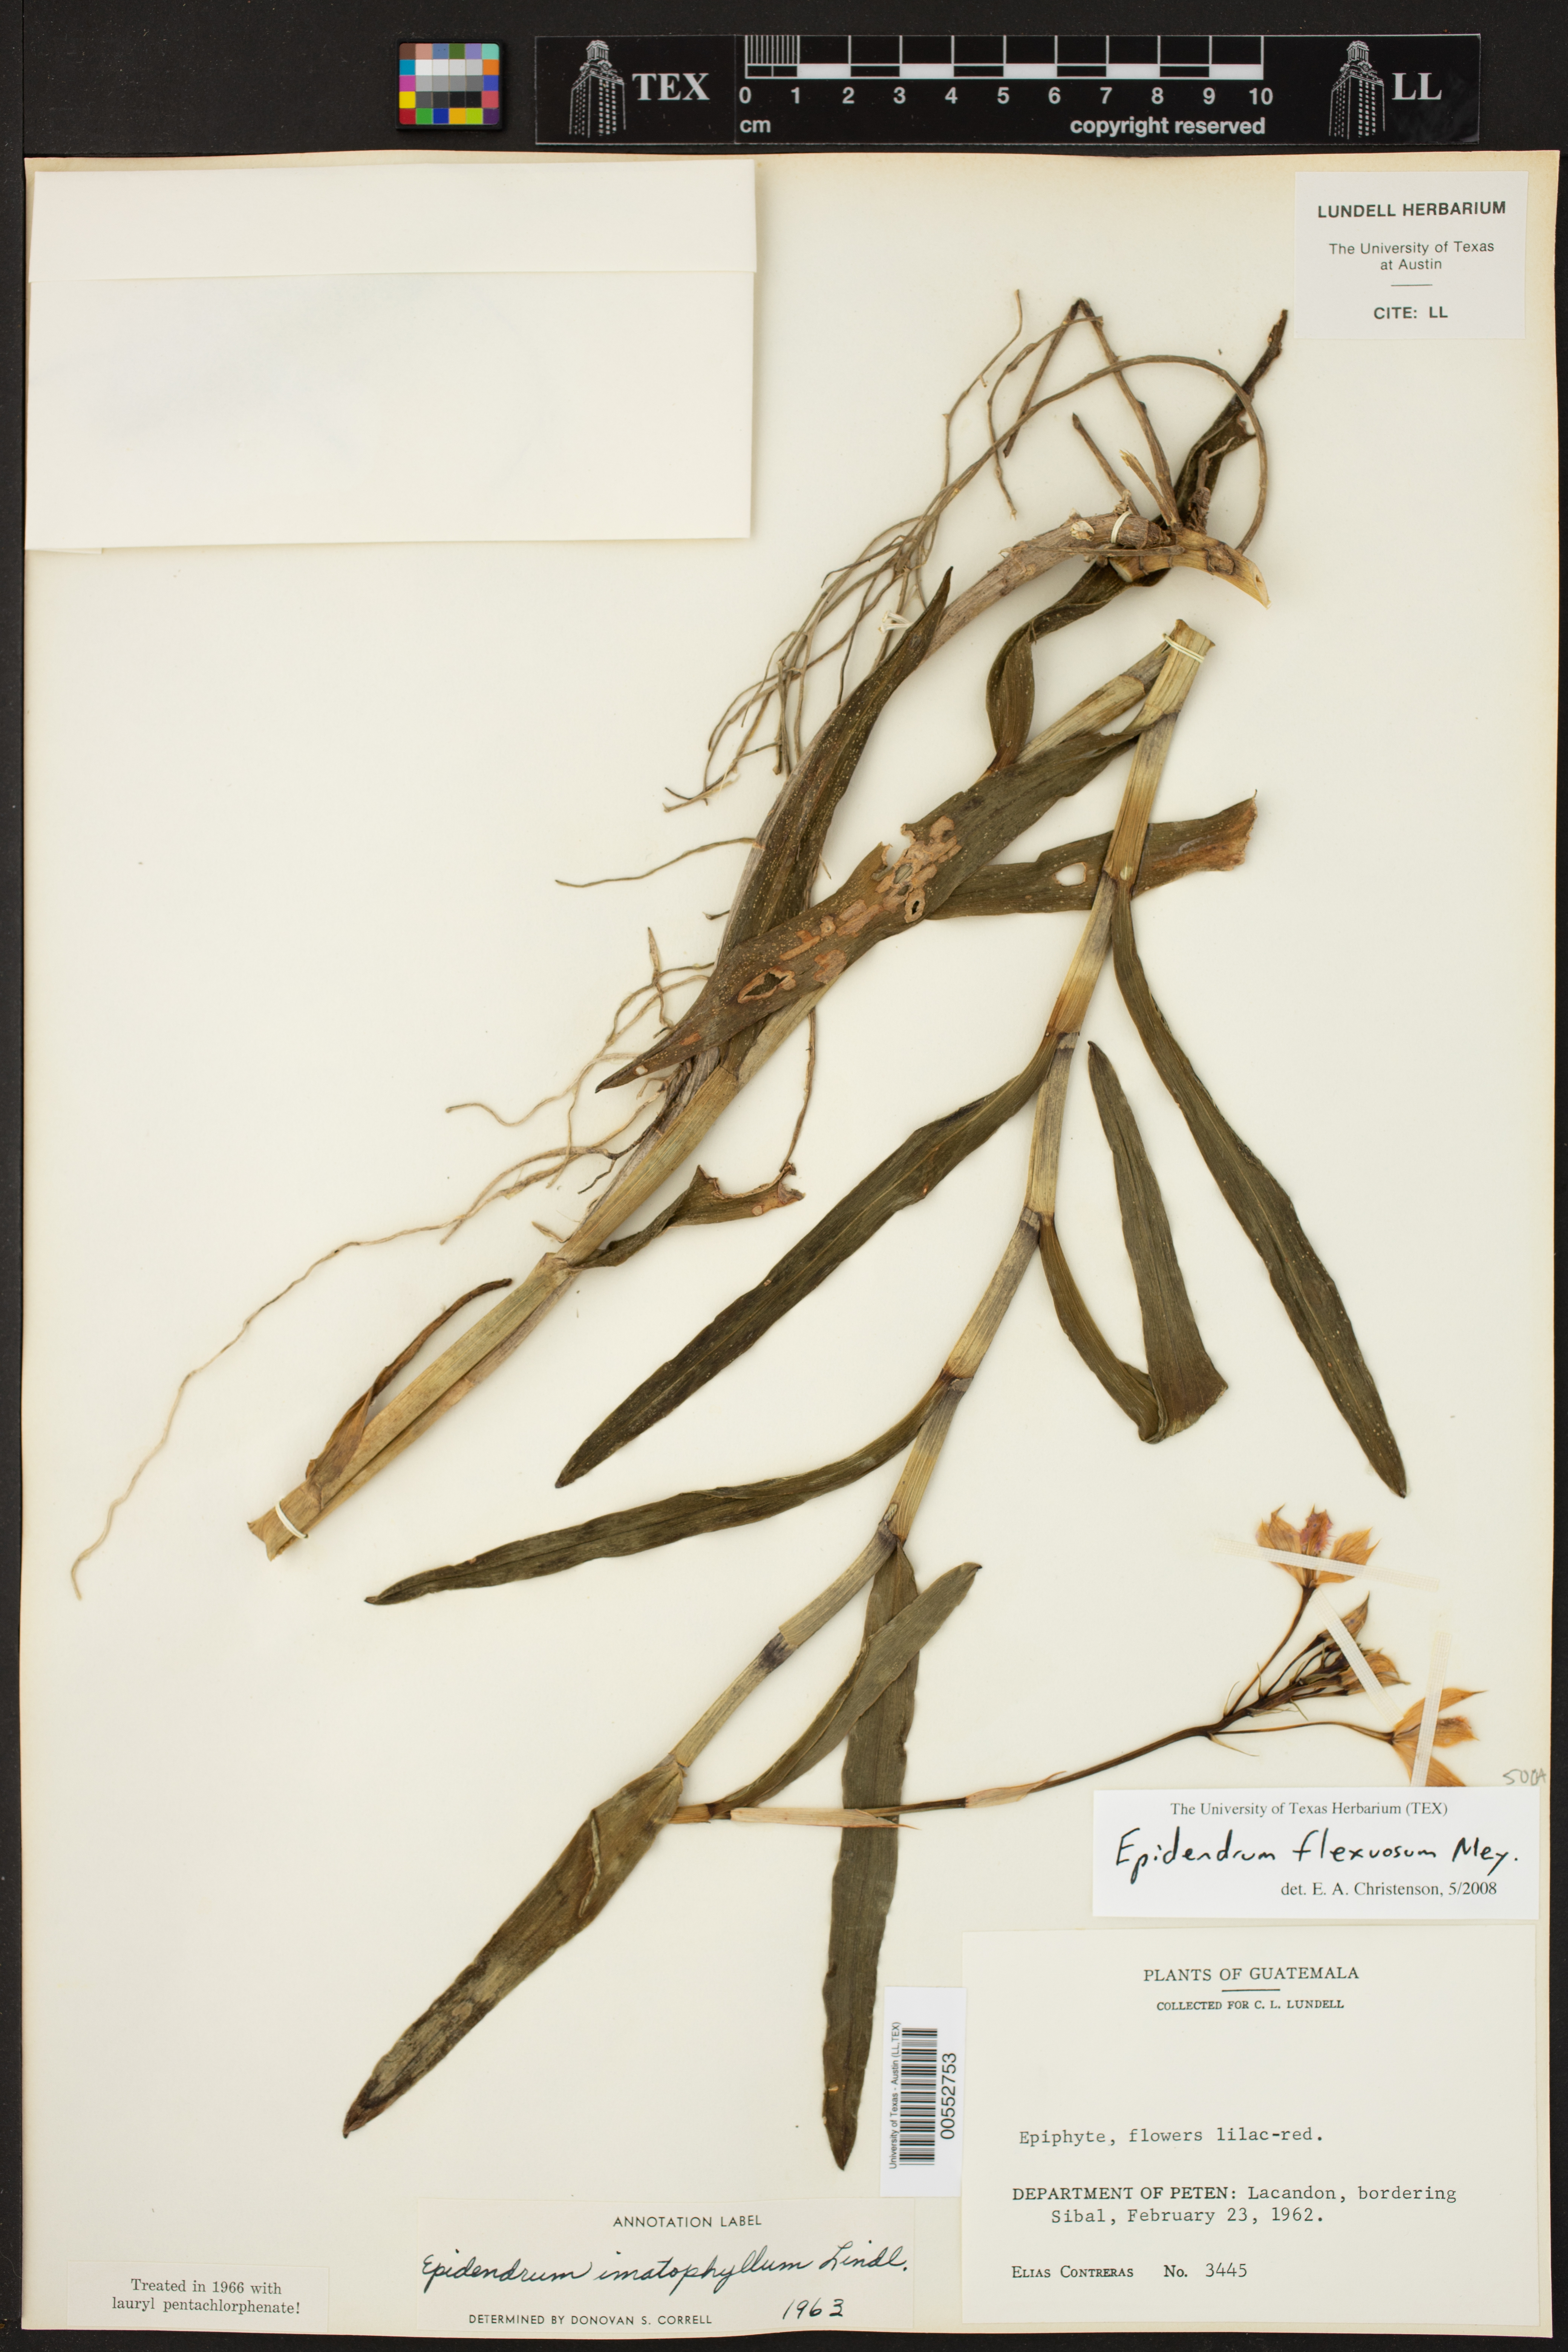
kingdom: Plantae
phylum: Tracheophyta
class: Liliopsida
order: Asparagales
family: Orchidaceae
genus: Epidendrum
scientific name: Epidendrum
